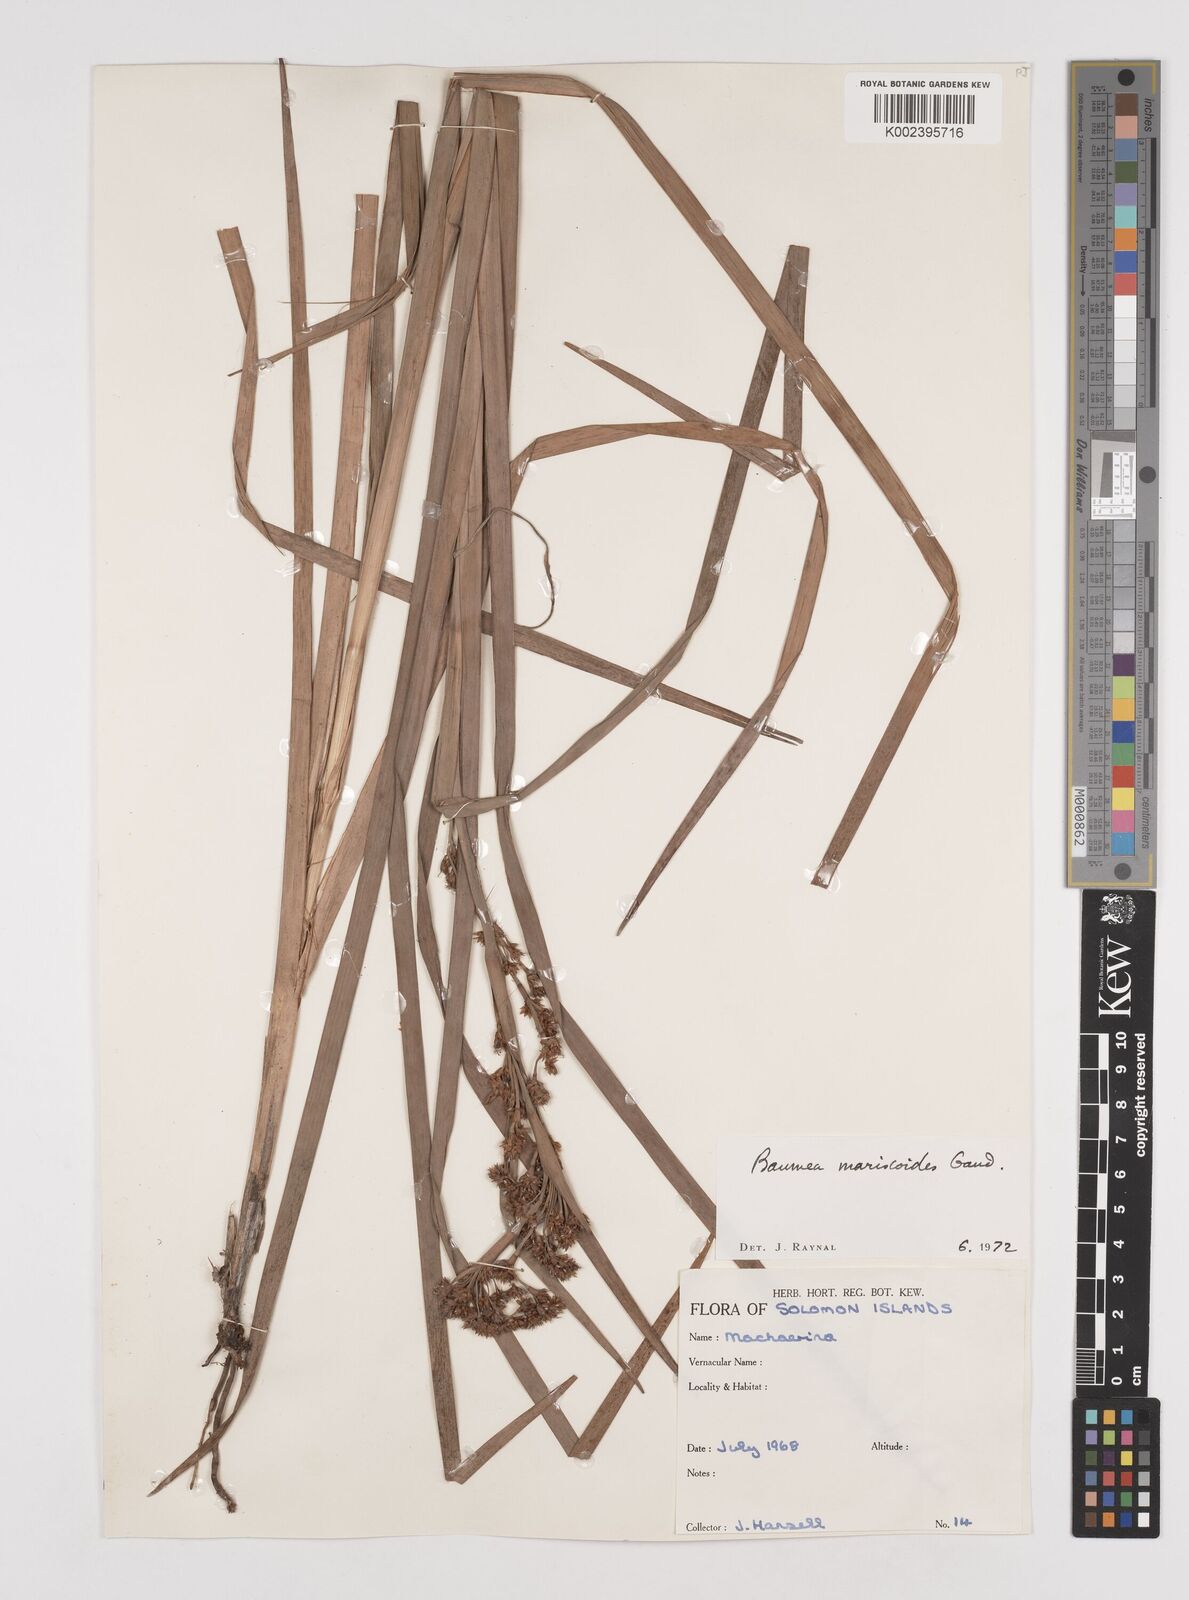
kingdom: Plantae
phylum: Tracheophyta
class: Liliopsida
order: Poales
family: Cyperaceae
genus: Machaerina
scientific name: Machaerina mariscoides
